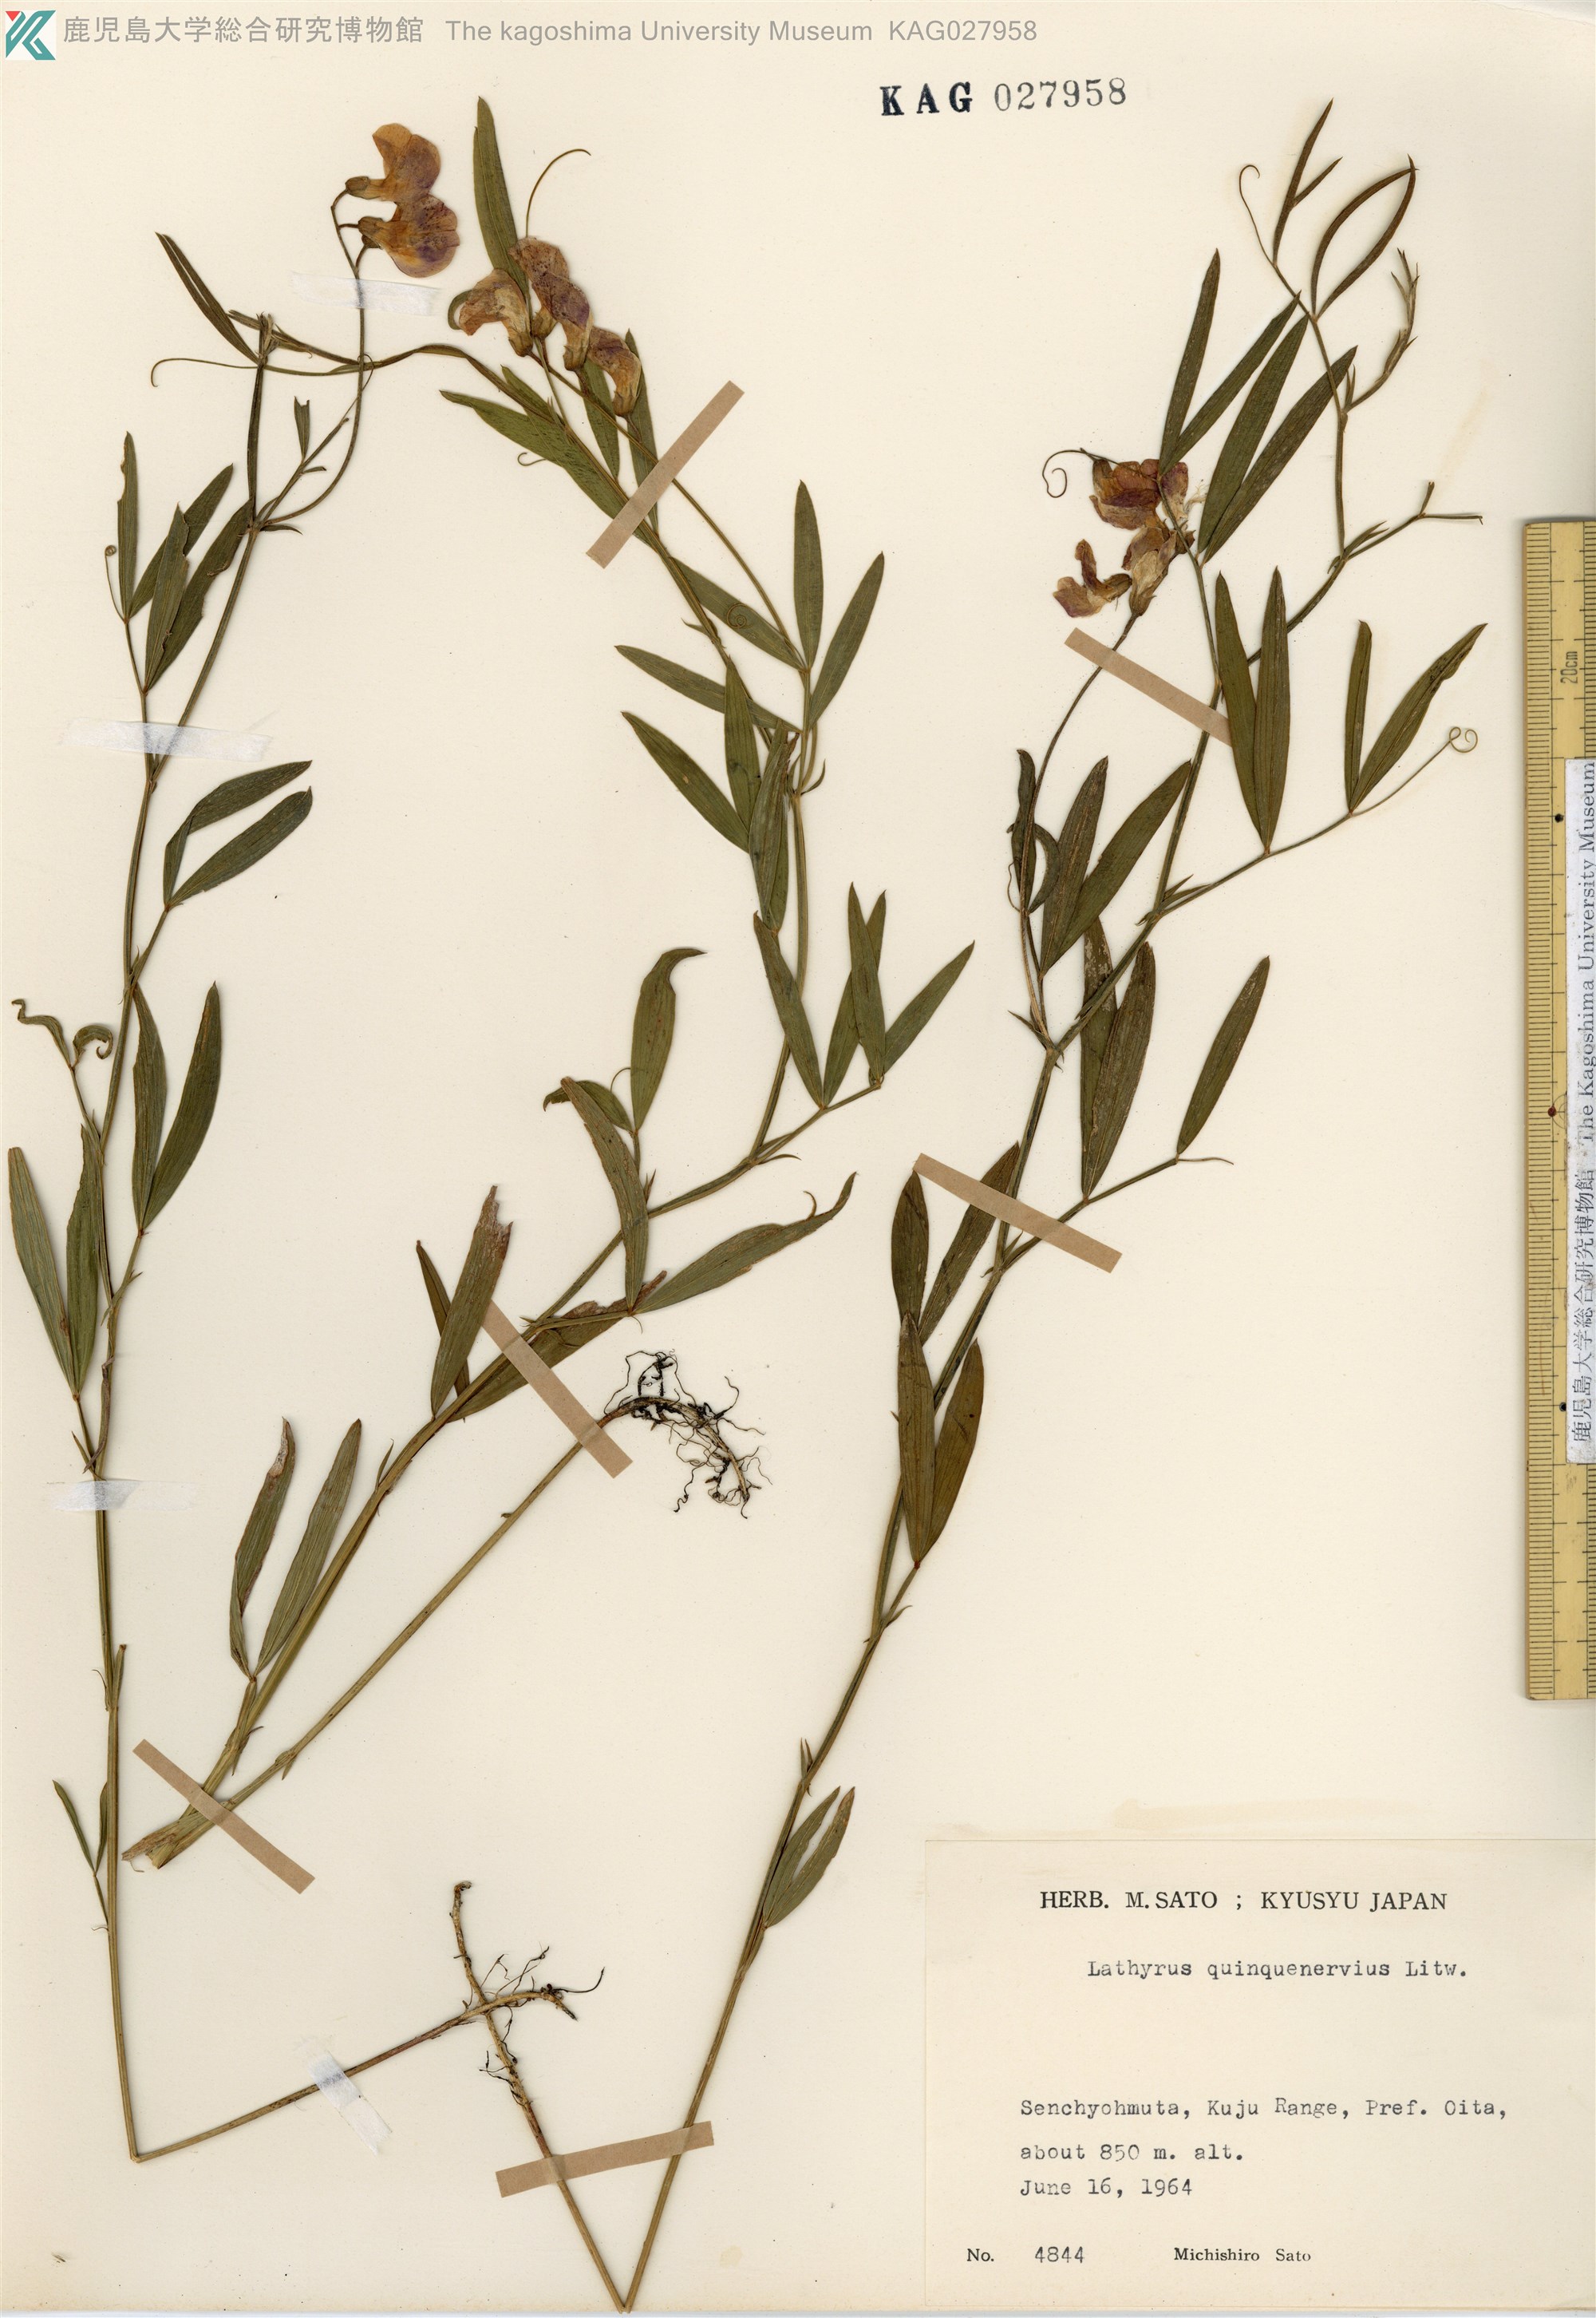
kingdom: Plantae
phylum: Tracheophyta
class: Magnoliopsida
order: Fabales
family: Fabaceae
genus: Lathyrus
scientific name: Lathyrus quinquenervius
